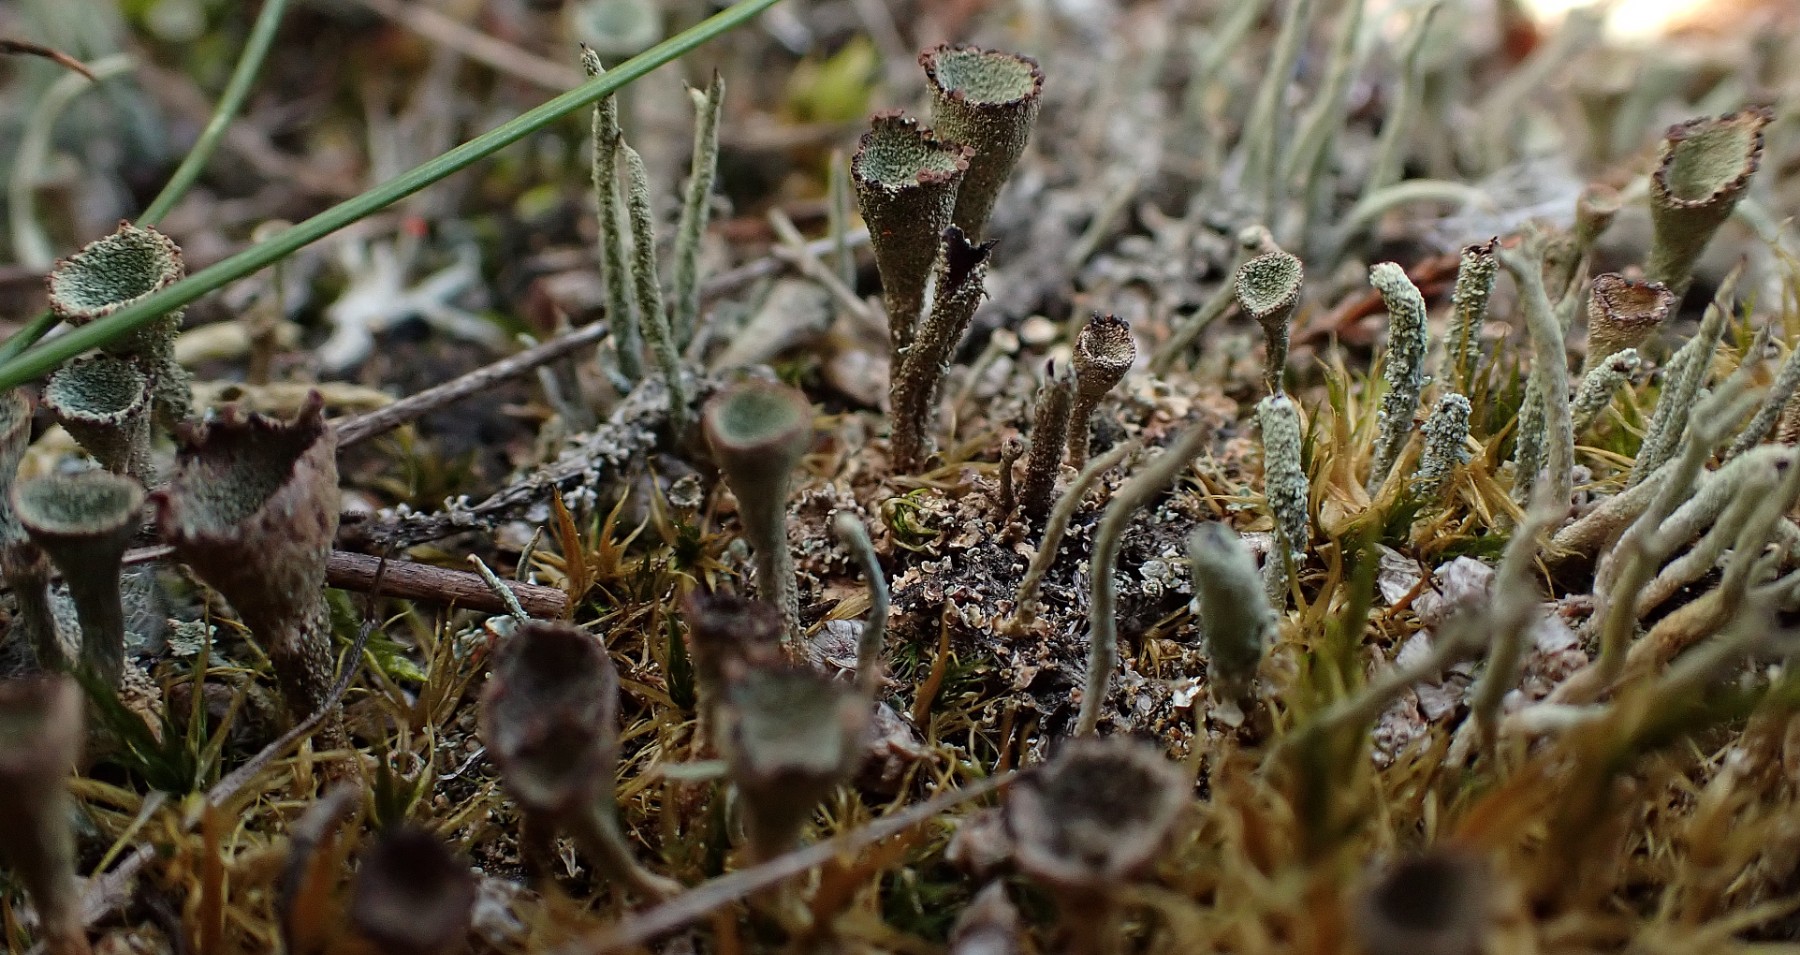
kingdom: Fungi
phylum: Ascomycota
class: Lecanoromycetes
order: Lecanorales
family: Cladoniaceae
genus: Cladonia
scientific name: Cladonia
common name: brungrøn bægerlav
